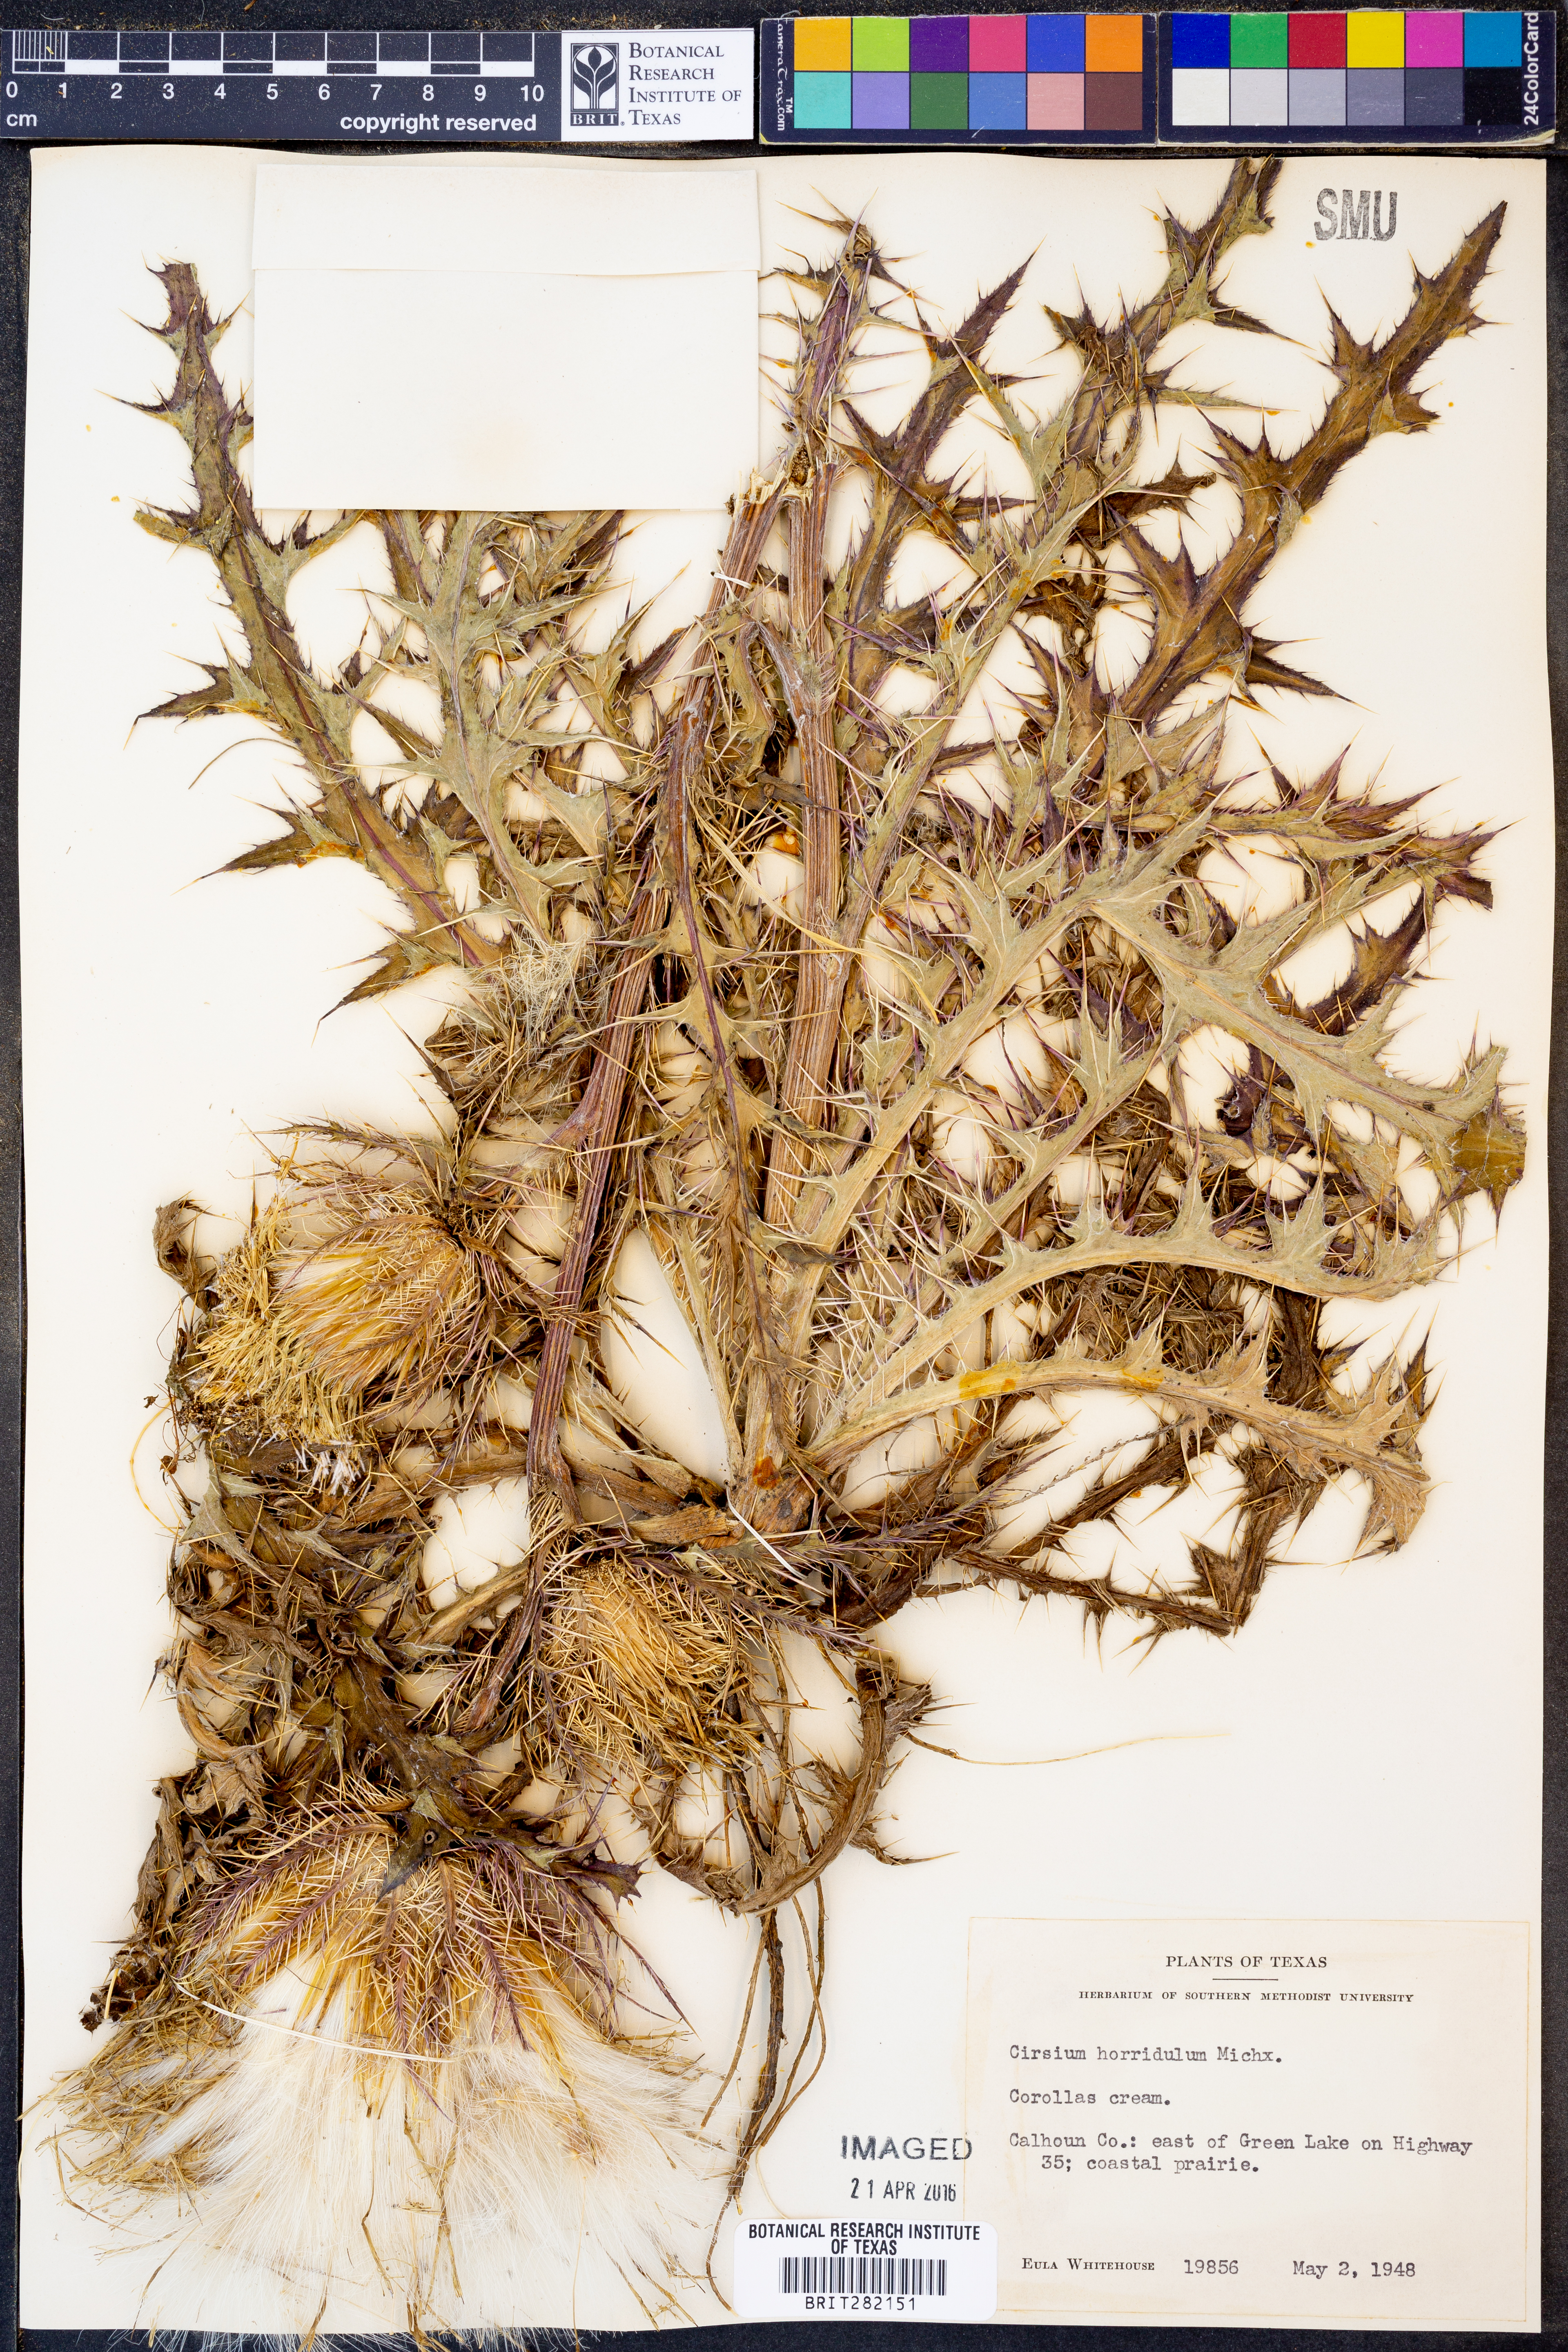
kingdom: Plantae
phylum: Tracheophyta
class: Magnoliopsida
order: Asterales
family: Asteraceae
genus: Cirsium
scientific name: Cirsium horridulum
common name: Bristly thistle
